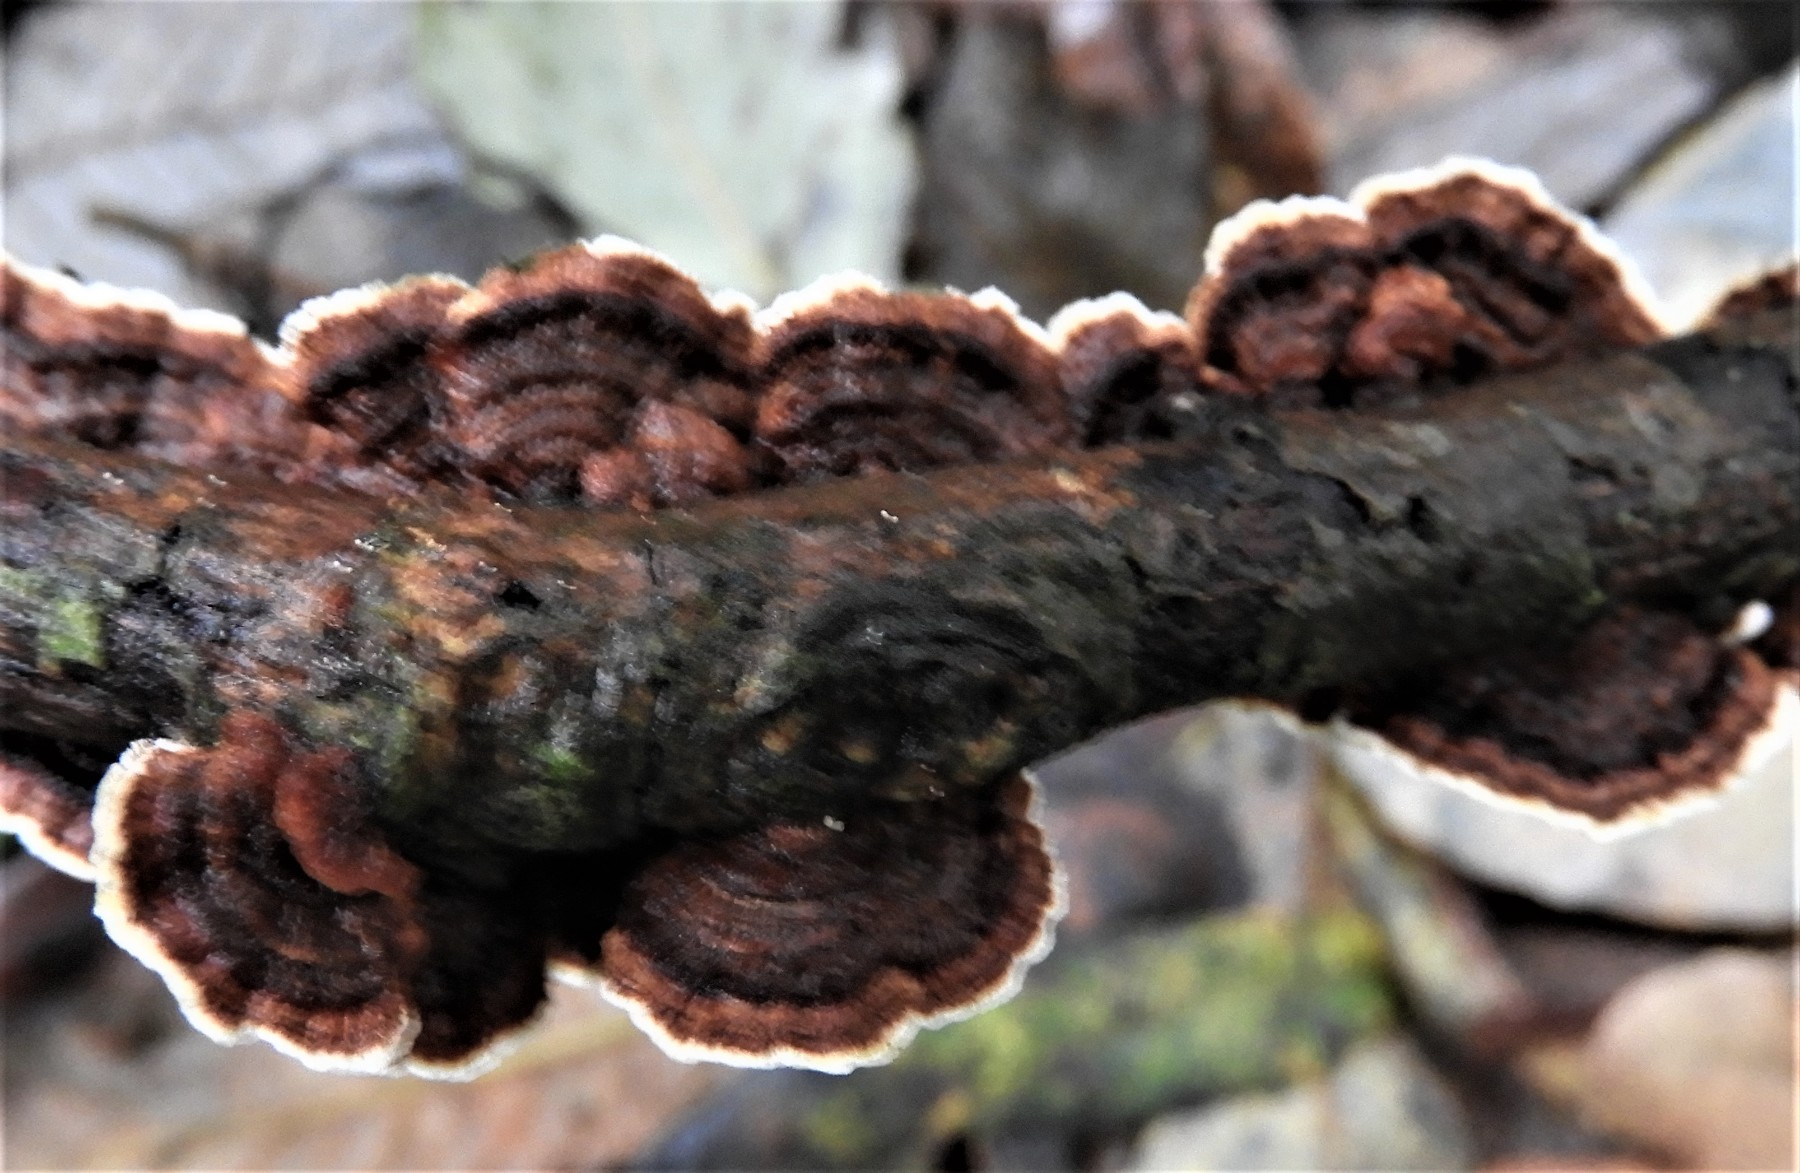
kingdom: Fungi
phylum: Basidiomycota
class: Agaricomycetes
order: Hymenochaetales
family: Hymenochaetaceae
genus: Hydnoporia
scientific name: Hydnoporia tabacina
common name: tobaksbrun ruslædersvamp
